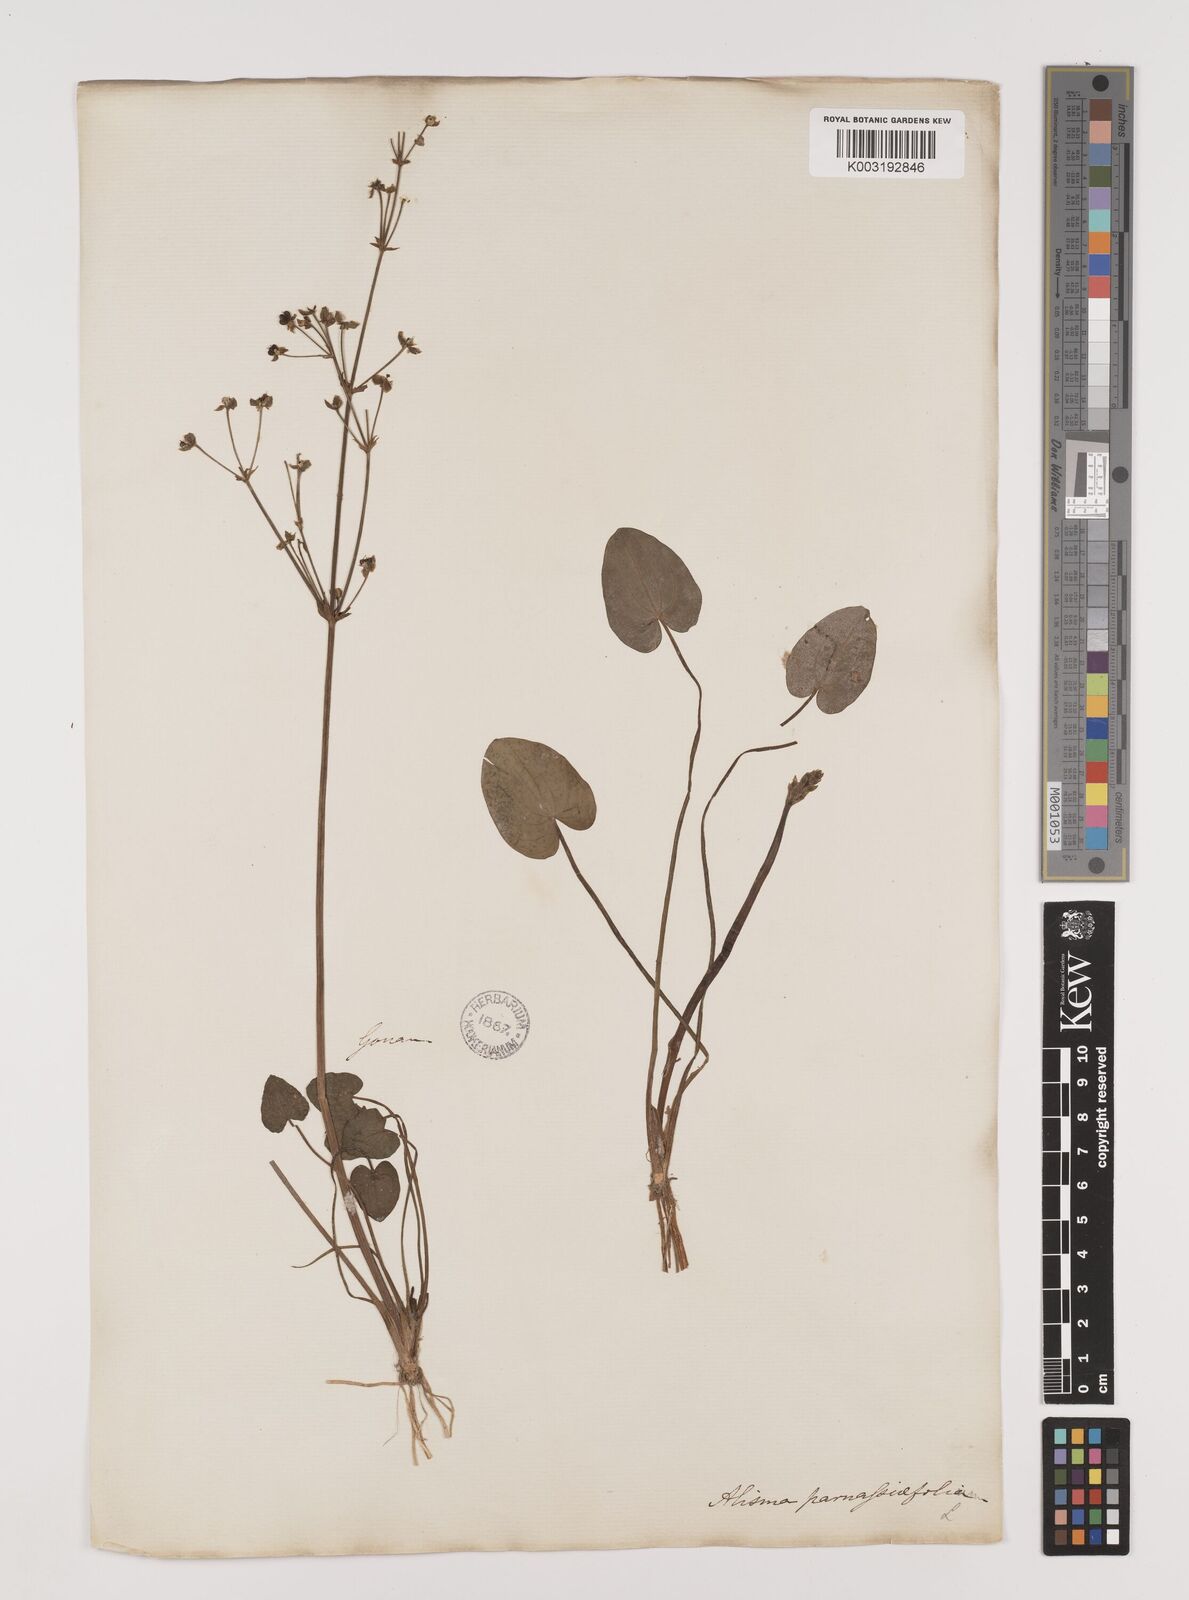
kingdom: Plantae
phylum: Tracheophyta
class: Liliopsida
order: Alismatales
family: Alismataceae
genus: Caldesia
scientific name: Caldesia parnassifolia
